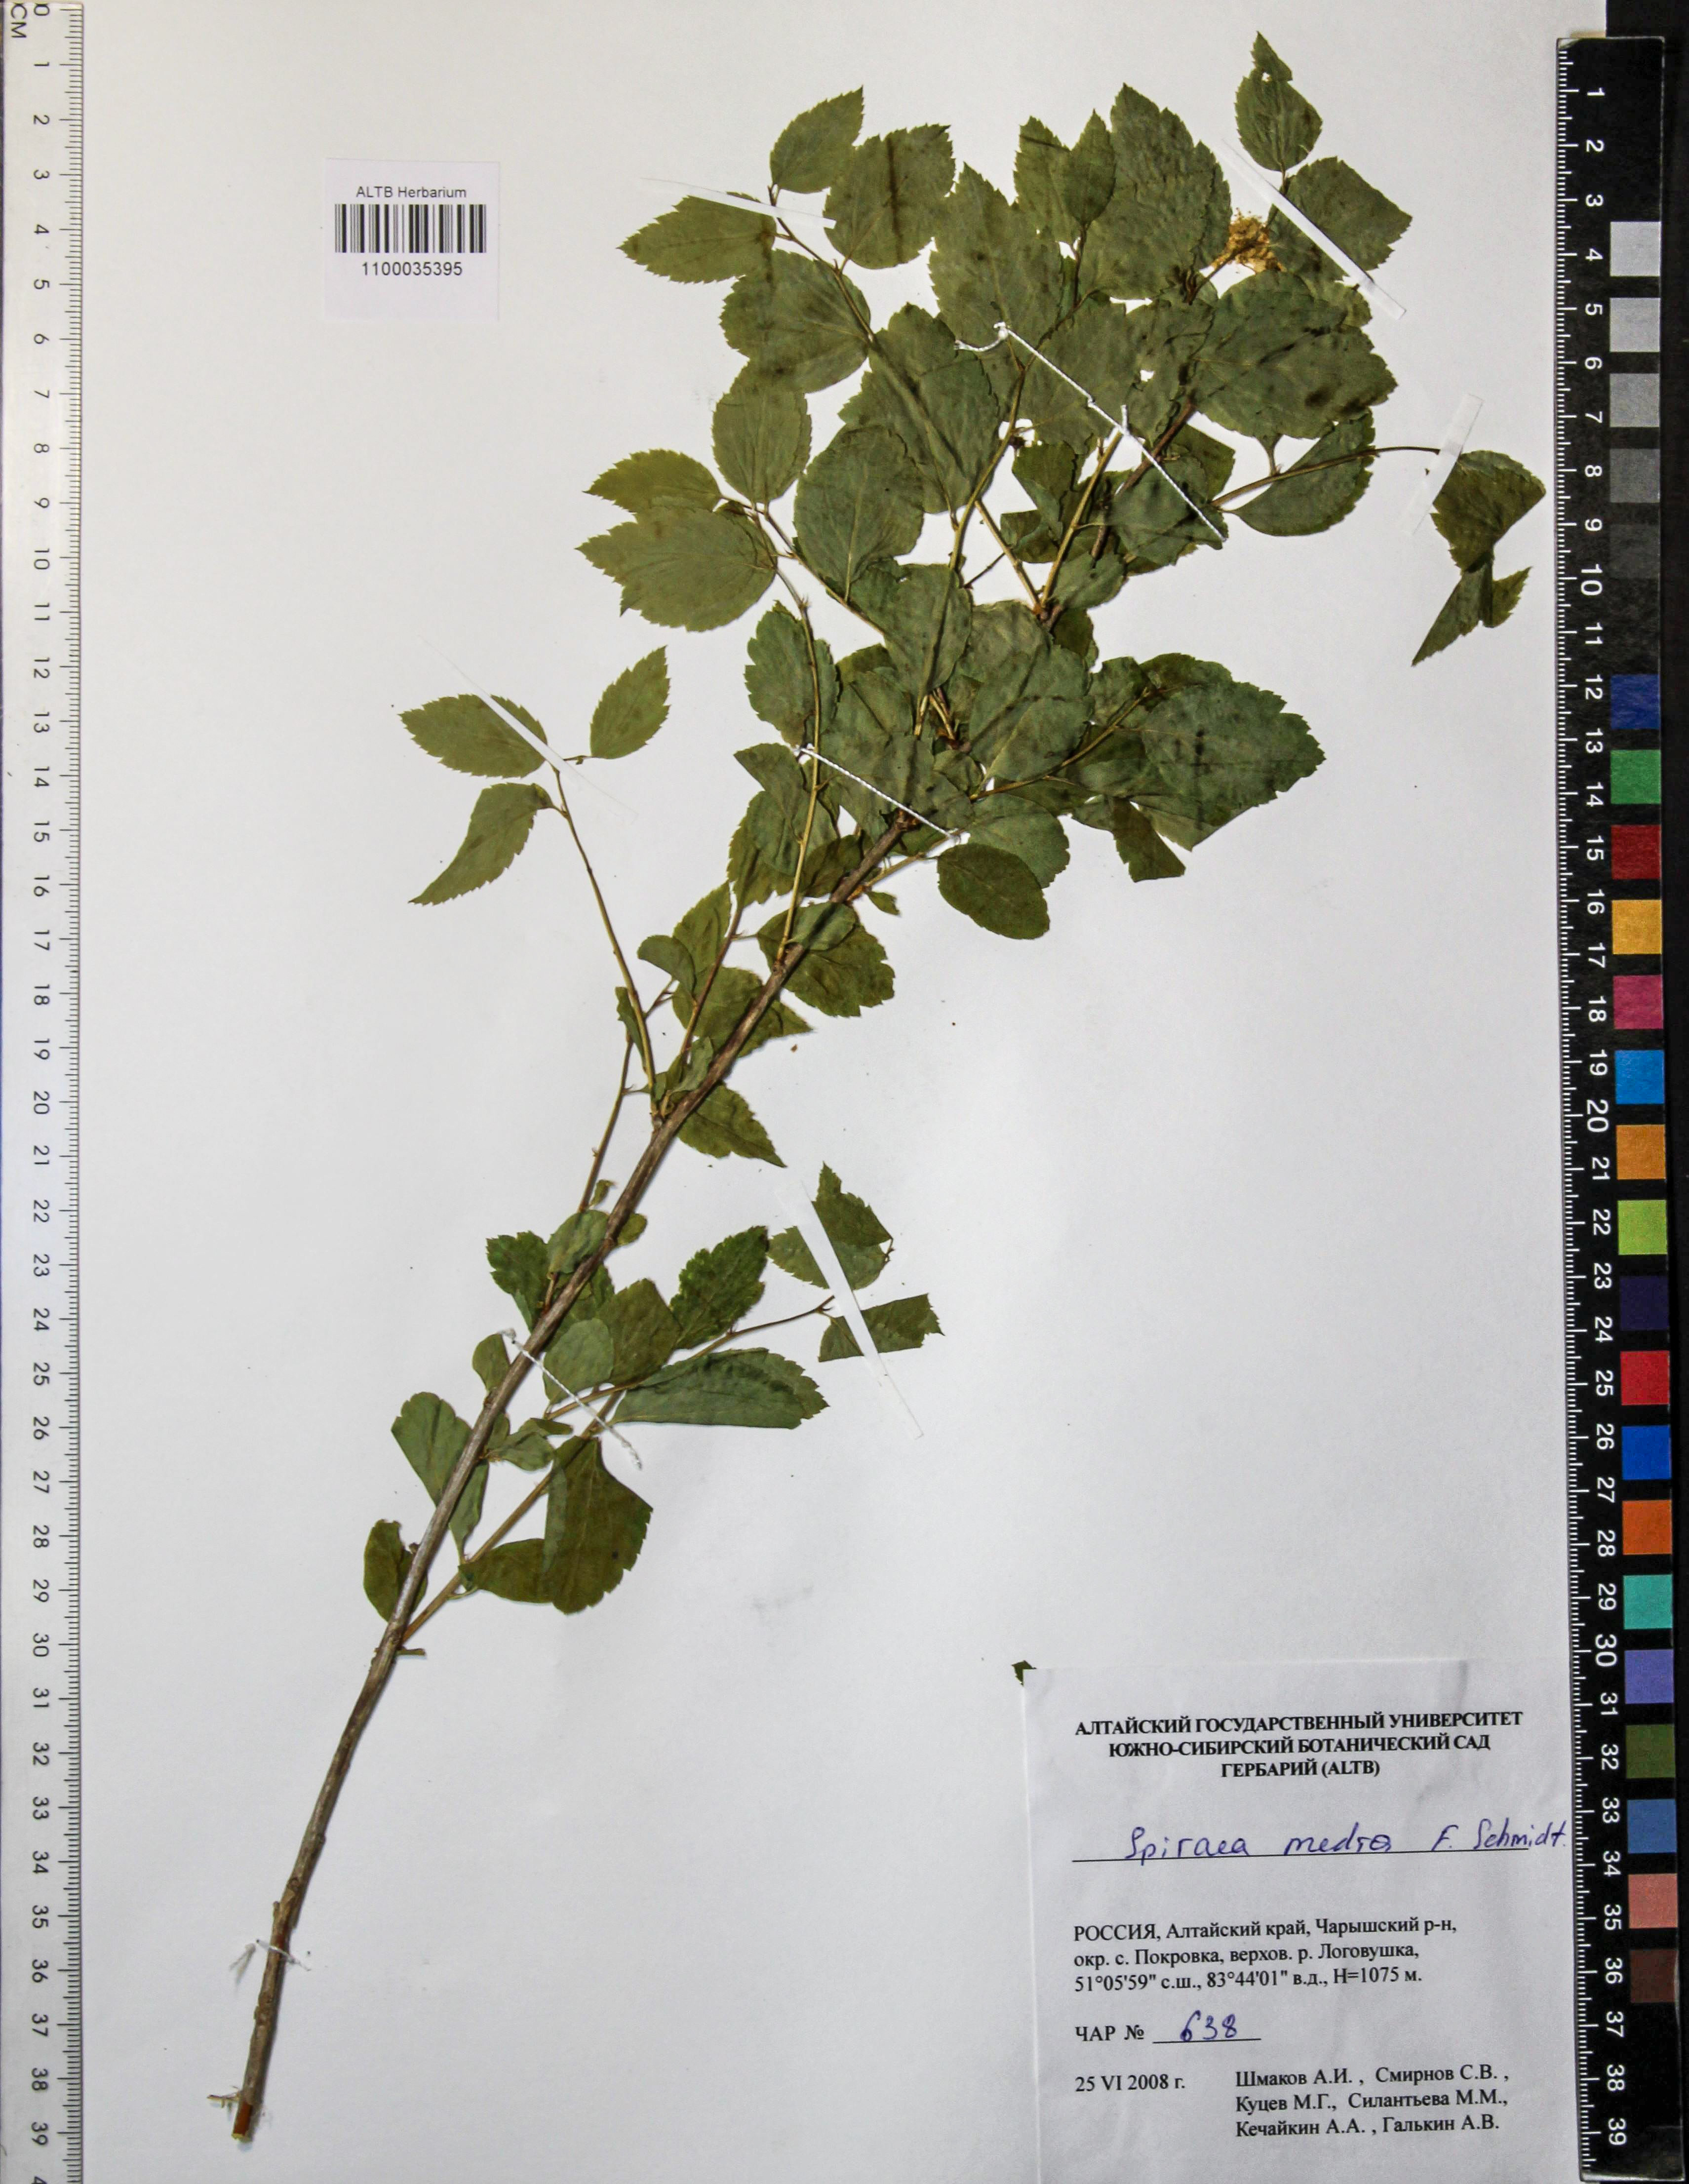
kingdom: Plantae
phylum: Tracheophyta
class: Magnoliopsida
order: Rosales
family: Rosaceae
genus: Spiraea
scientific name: Spiraea media
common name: Russian spiraea
